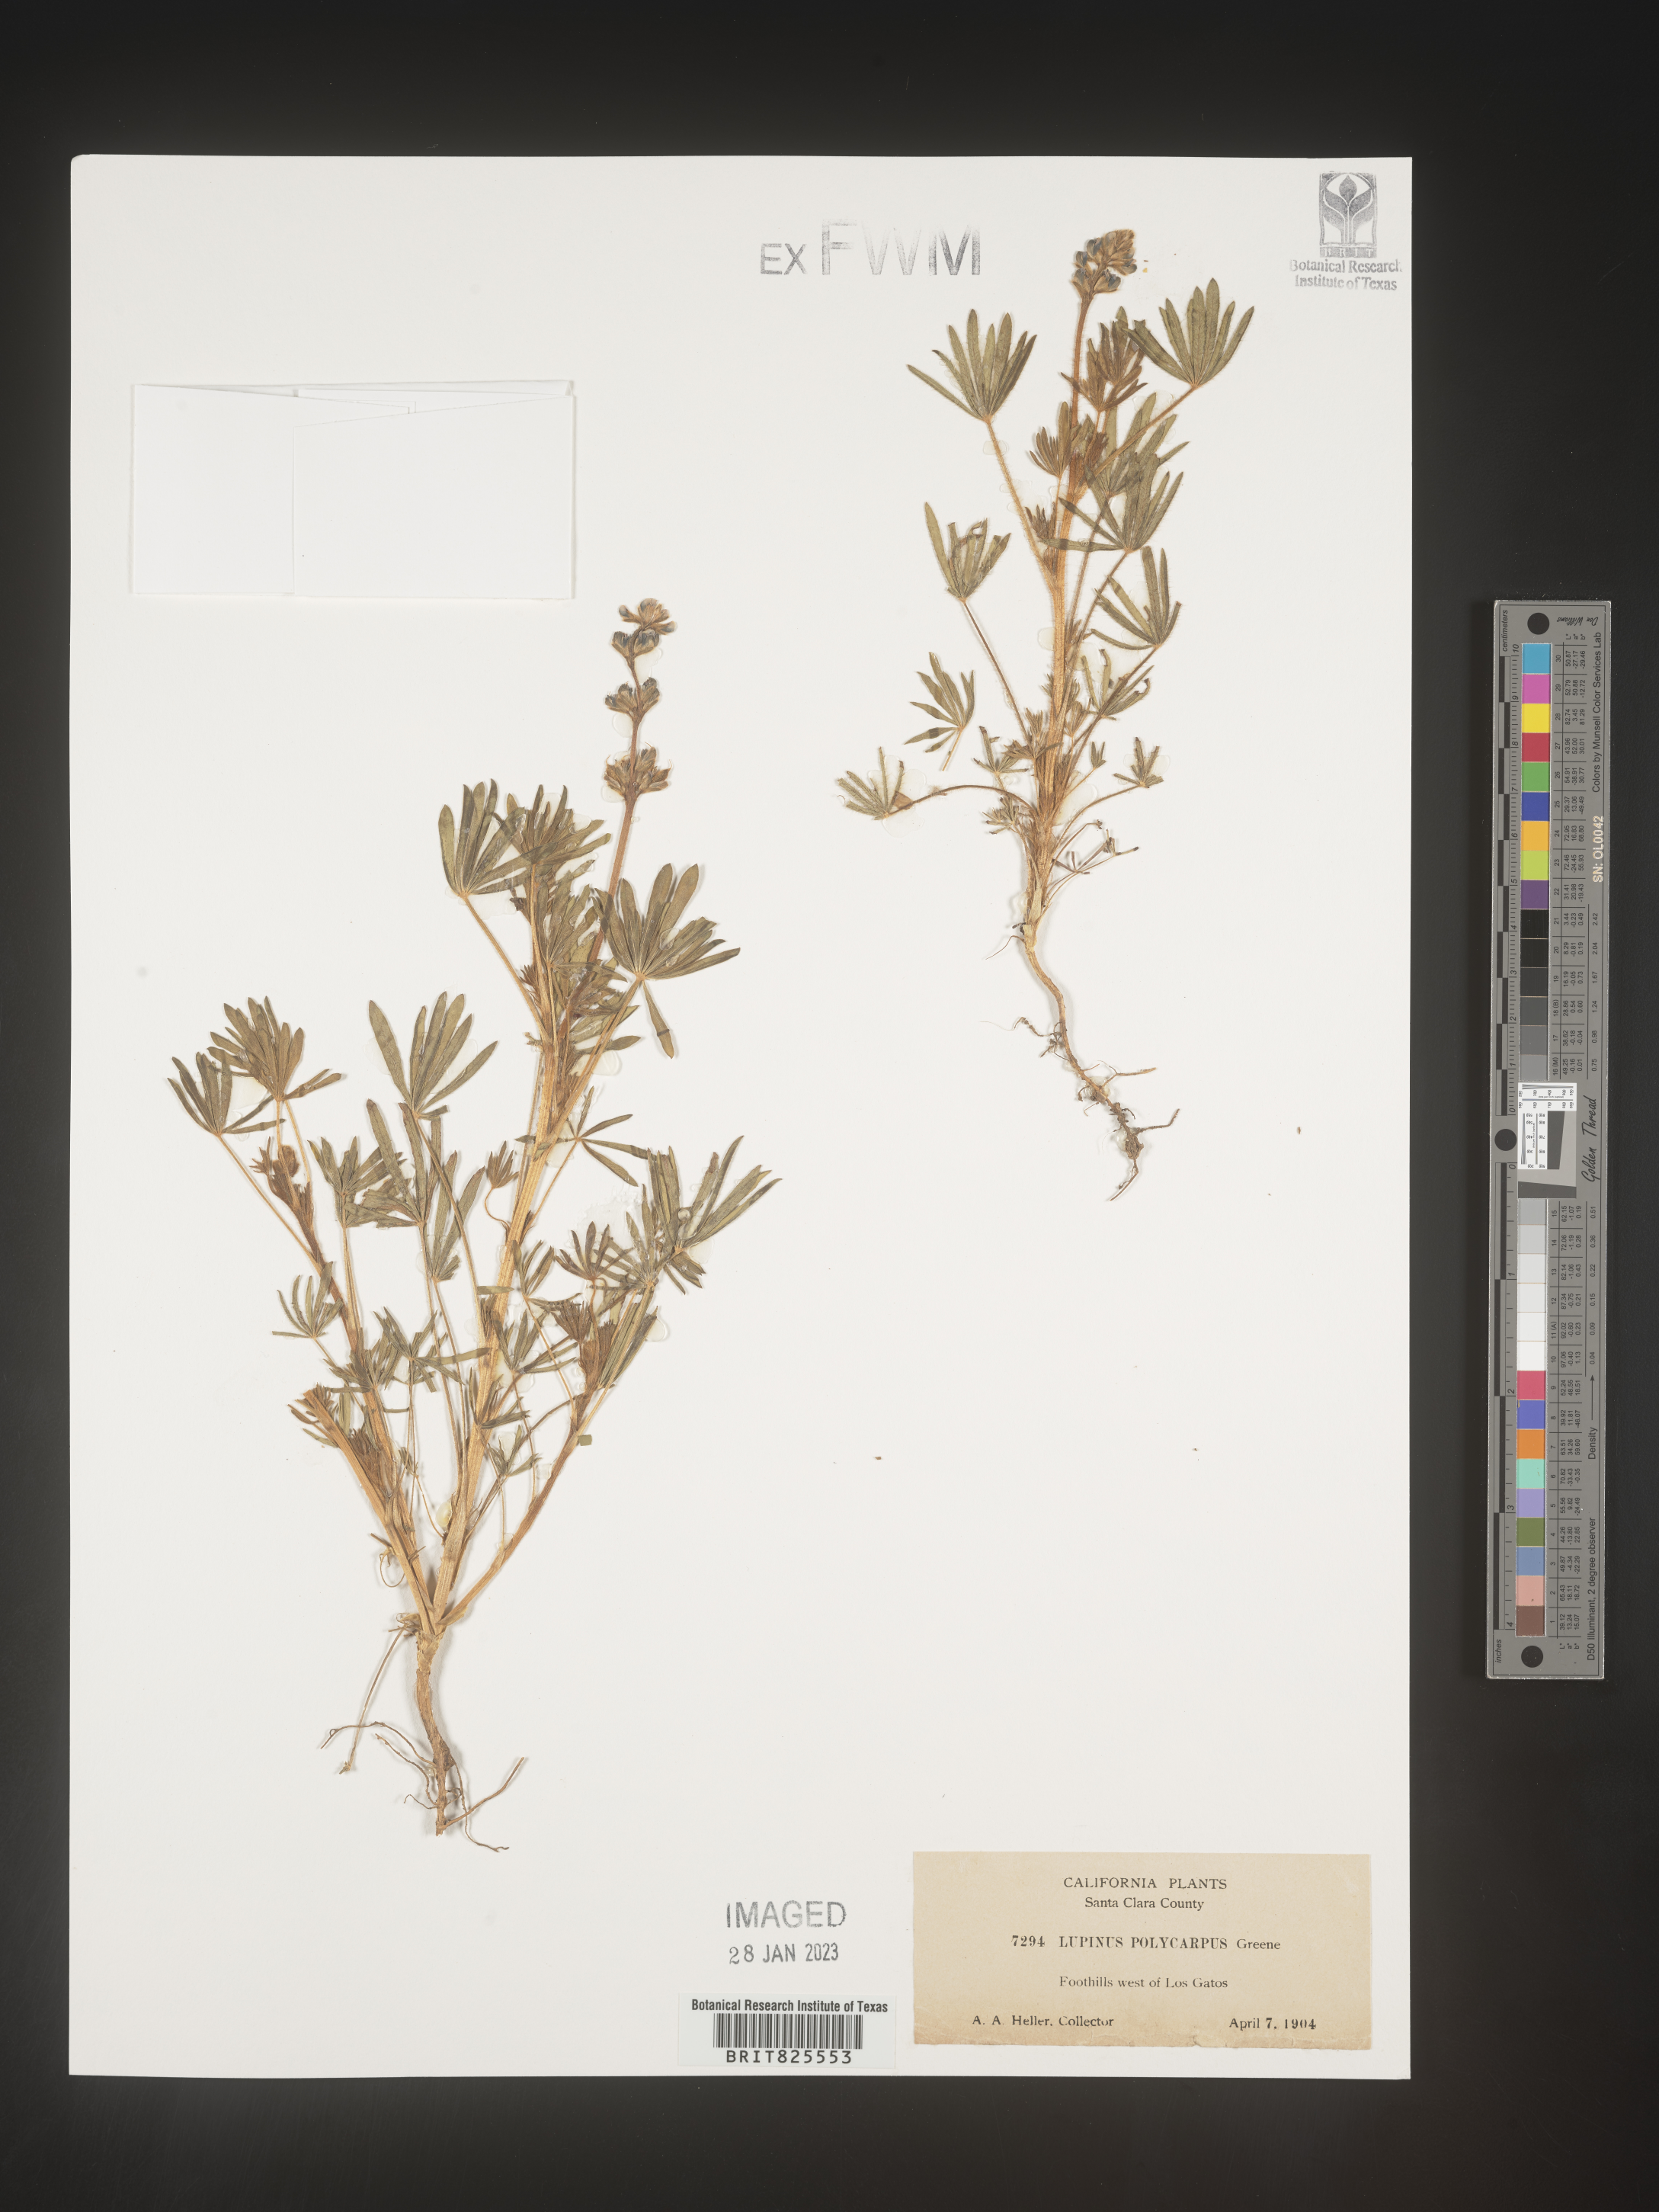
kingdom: Plantae
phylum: Tracheophyta
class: Magnoliopsida
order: Fabales
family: Fabaceae
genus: Lupinus
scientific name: Lupinus
